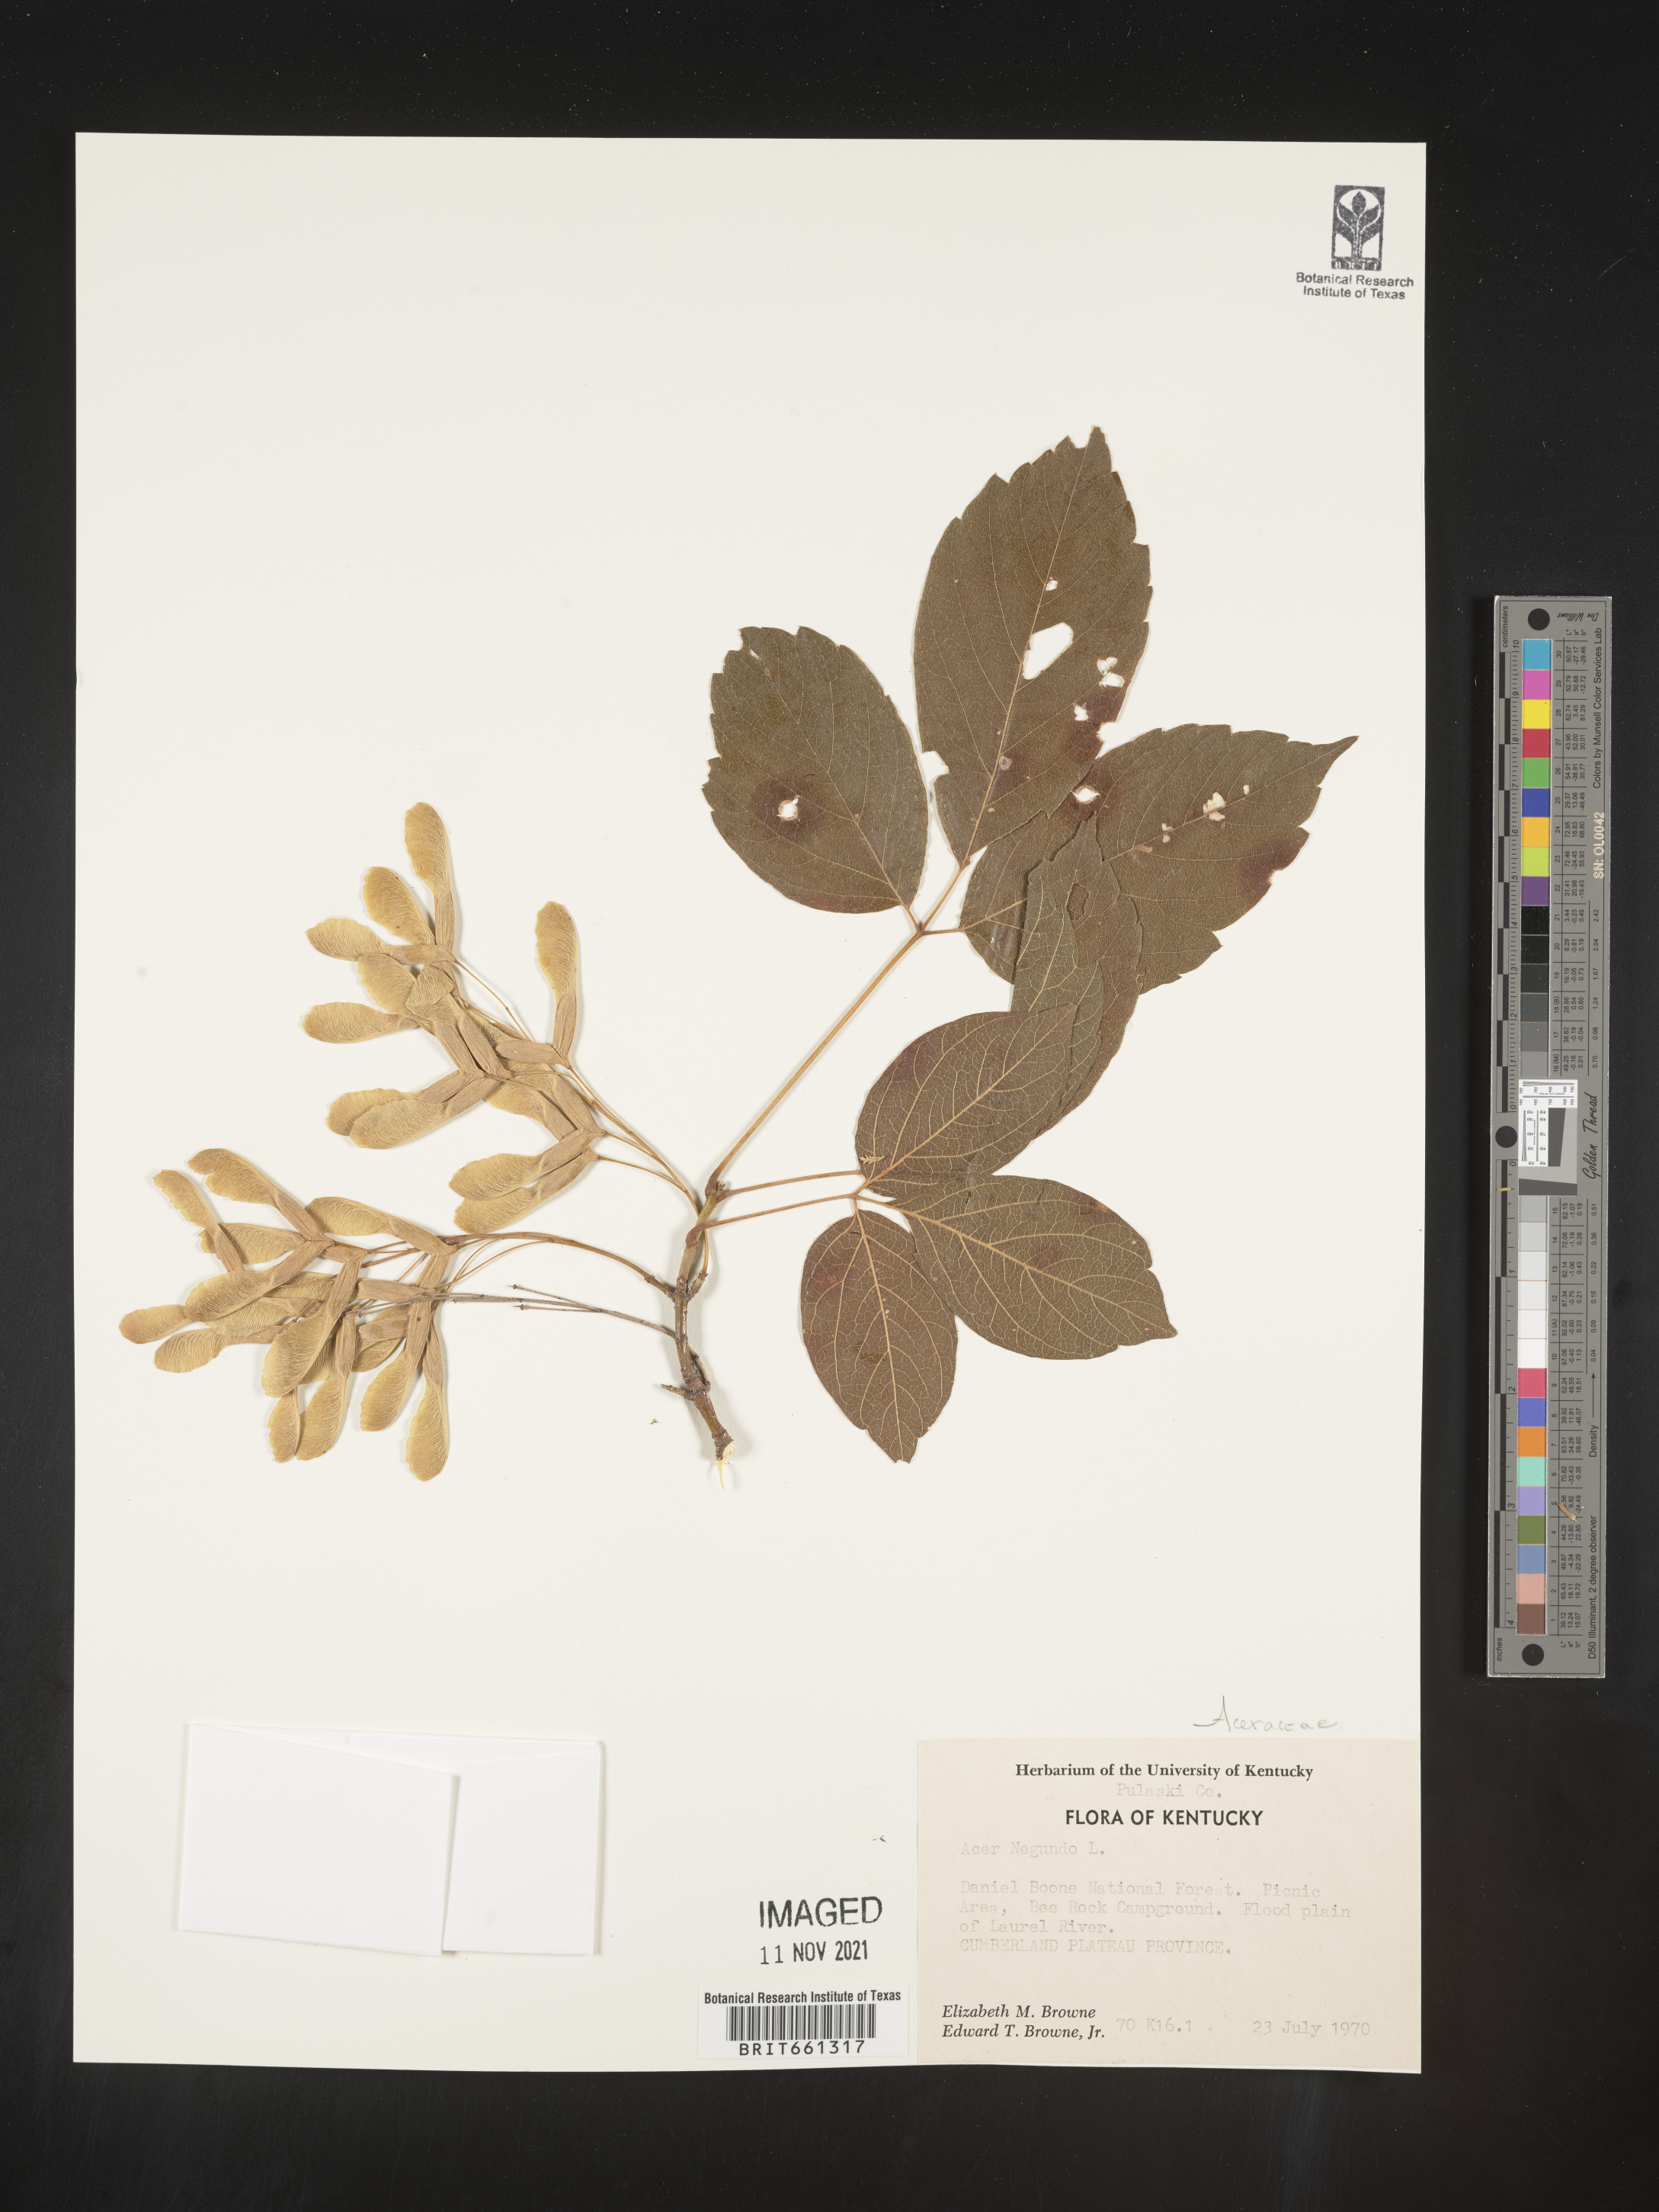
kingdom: Plantae
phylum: Tracheophyta
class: Magnoliopsida
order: Sapindales
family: Sapindaceae
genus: Acer
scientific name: Acer negundo
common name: Ashleaf maple
